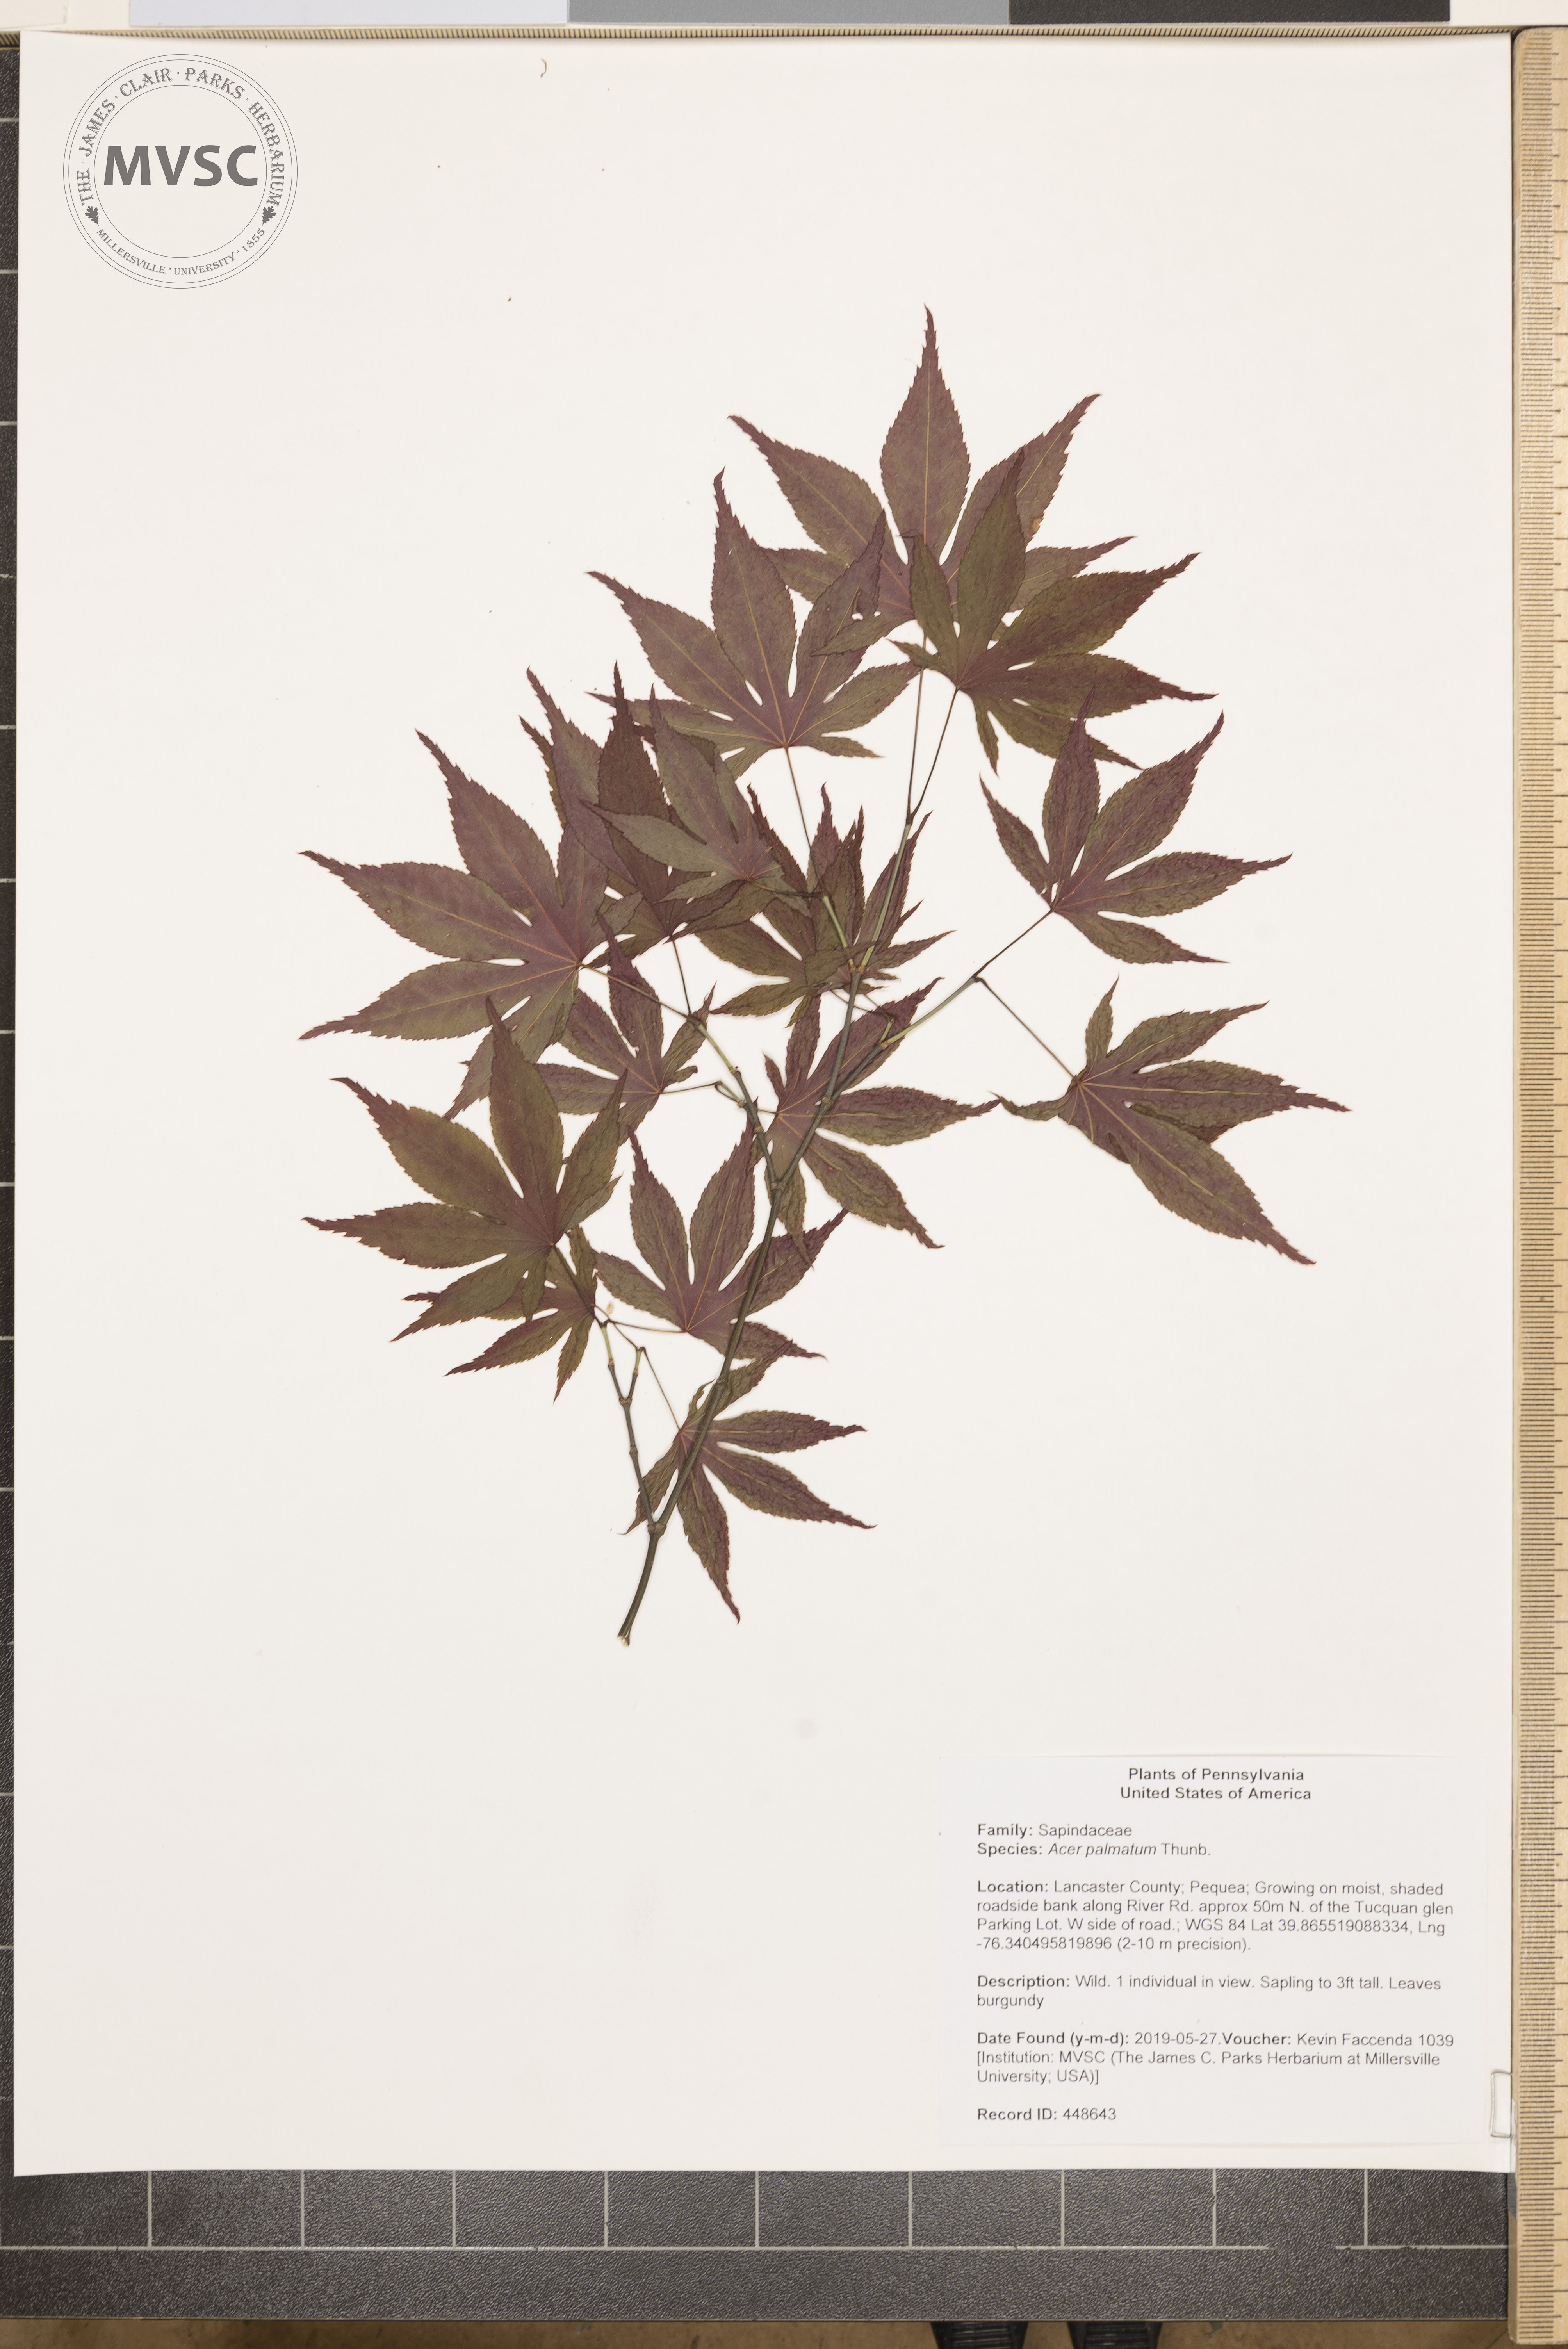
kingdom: Plantae
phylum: Tracheophyta
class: Magnoliopsida
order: Sapindales
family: Sapindaceae
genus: Acer
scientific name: Acer palmatum
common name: Japanese maple
